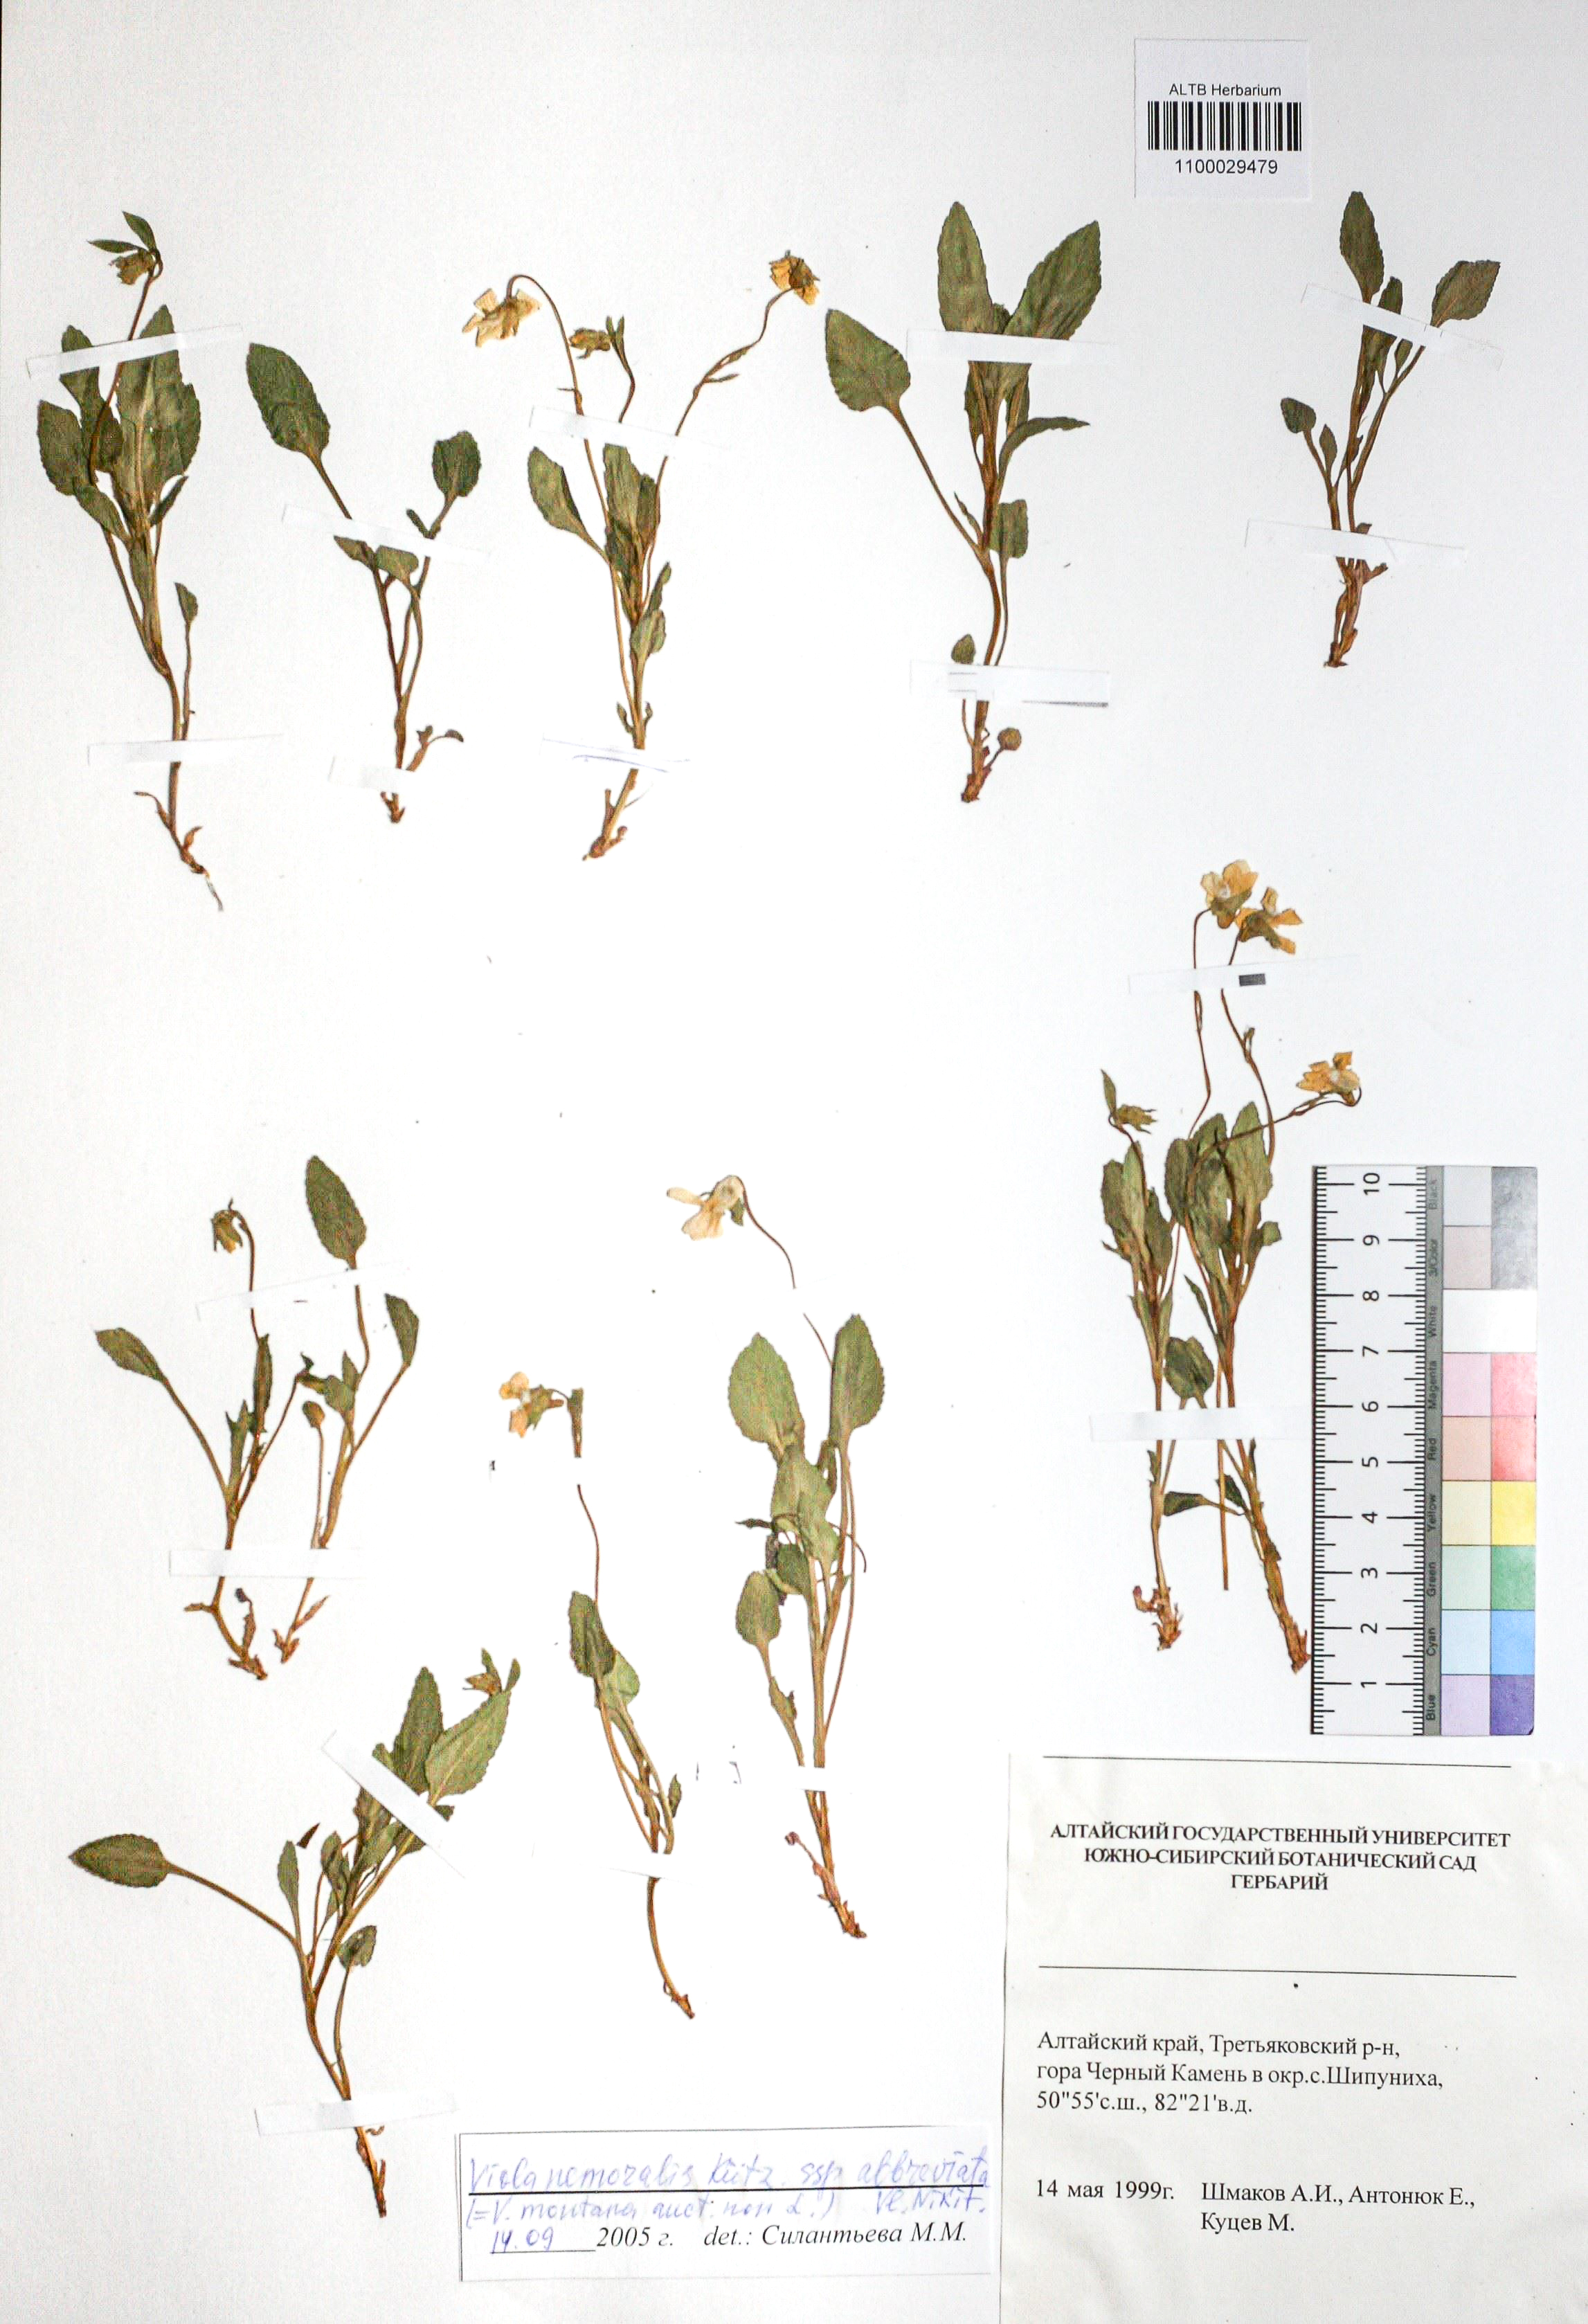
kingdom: Plantae
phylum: Tracheophyta
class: Magnoliopsida
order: Malpighiales
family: Violaceae
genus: Viola
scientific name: Viola ruppii
